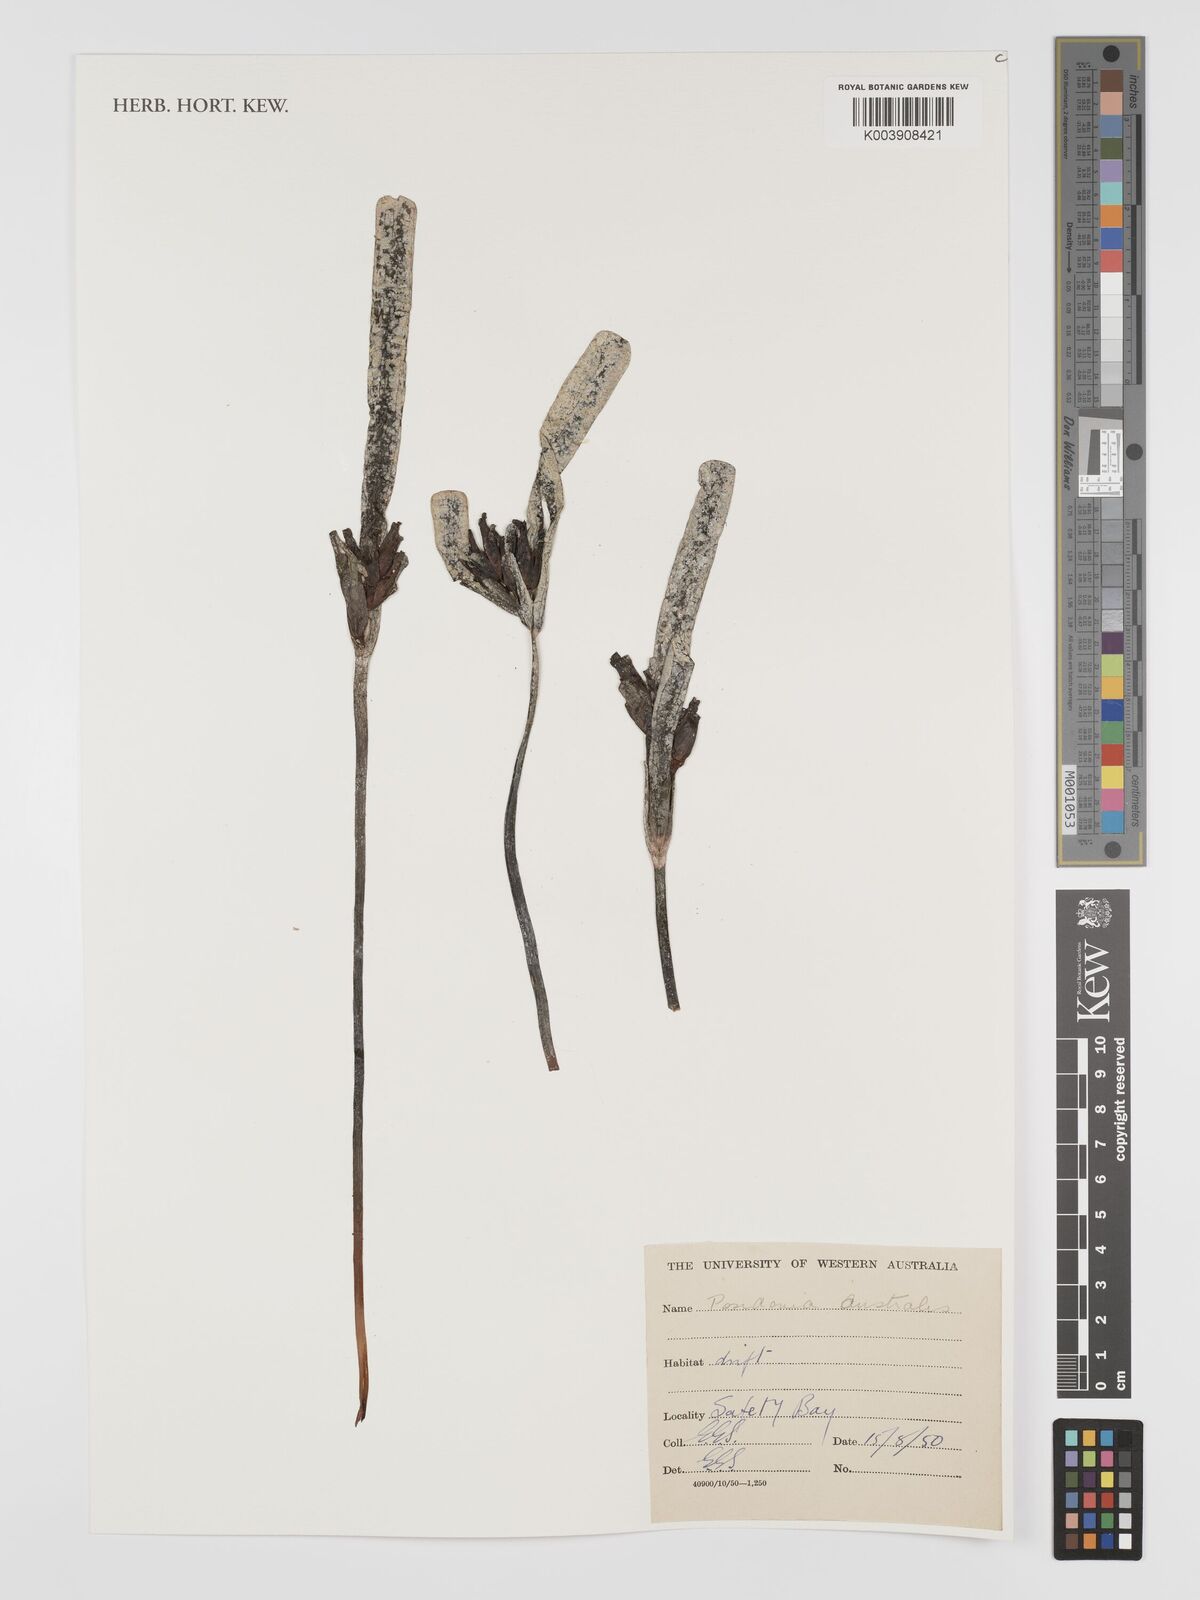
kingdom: Plantae
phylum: Tracheophyta
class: Liliopsida
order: Alismatales
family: Posidoniaceae
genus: Posidonia
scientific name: Posidonia australis
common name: Species code: pa
